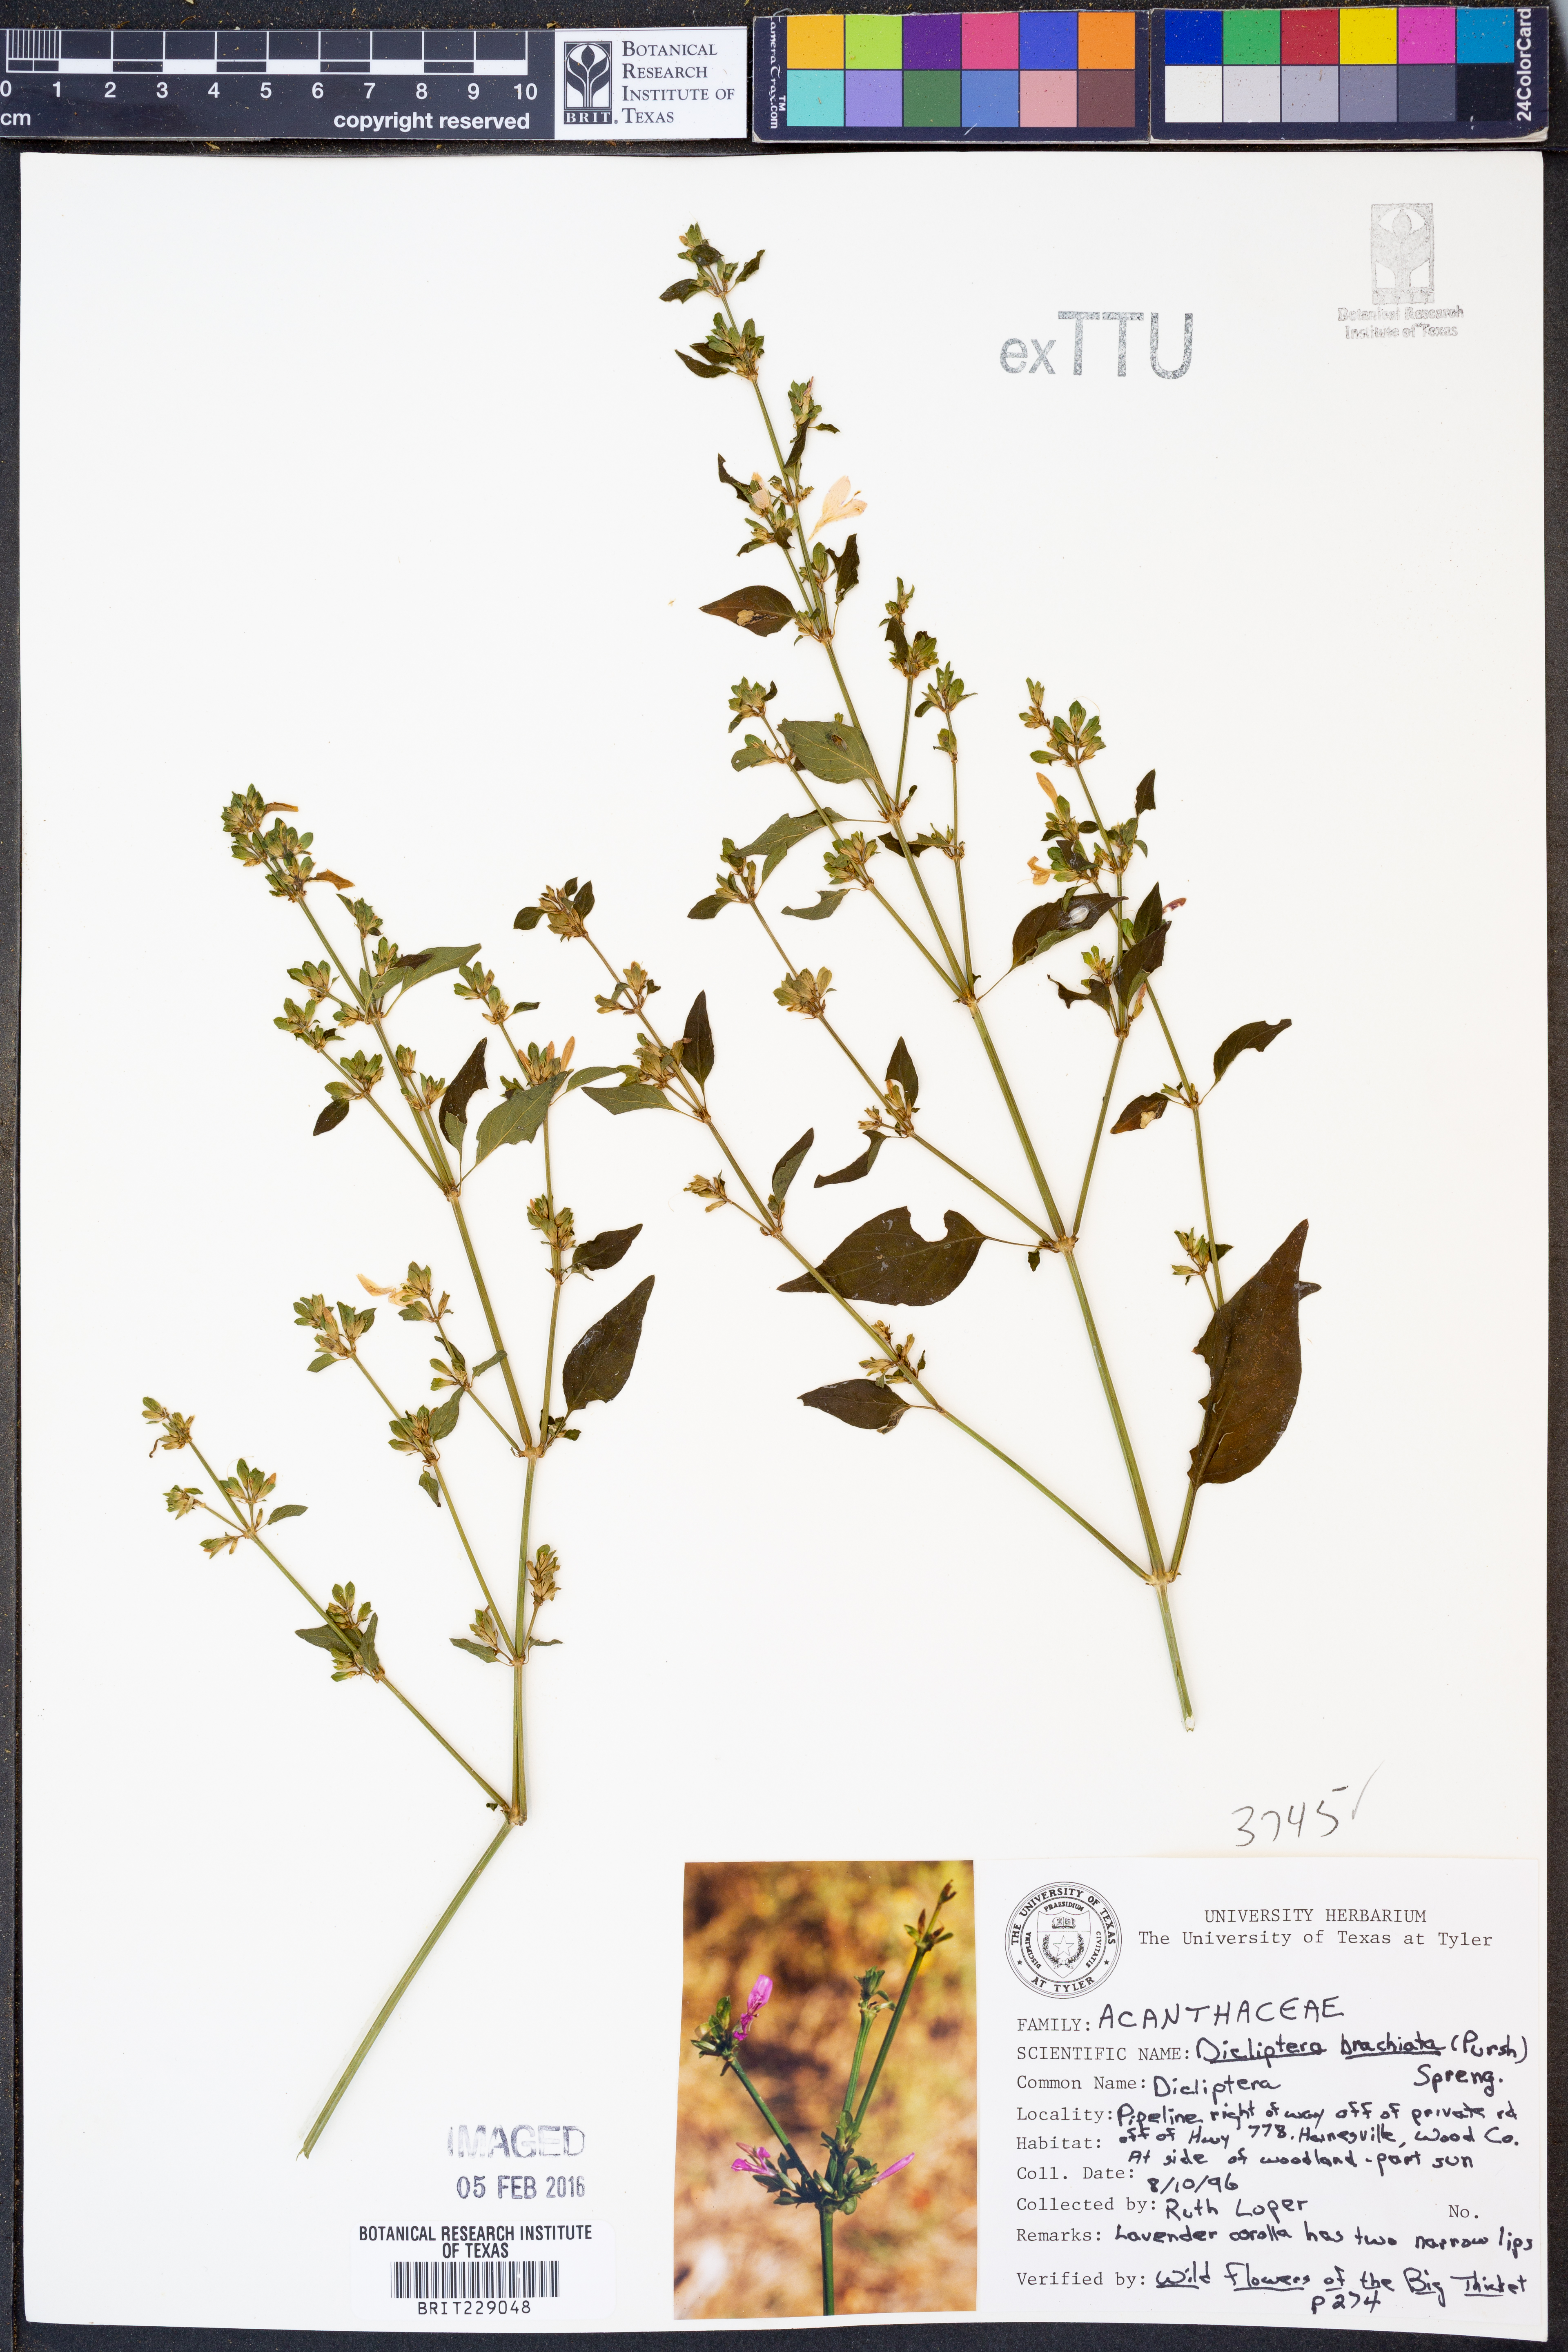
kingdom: Plantae
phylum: Tracheophyta
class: Magnoliopsida
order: Lamiales
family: Acanthaceae
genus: Dicliptera
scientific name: Dicliptera brachiata
